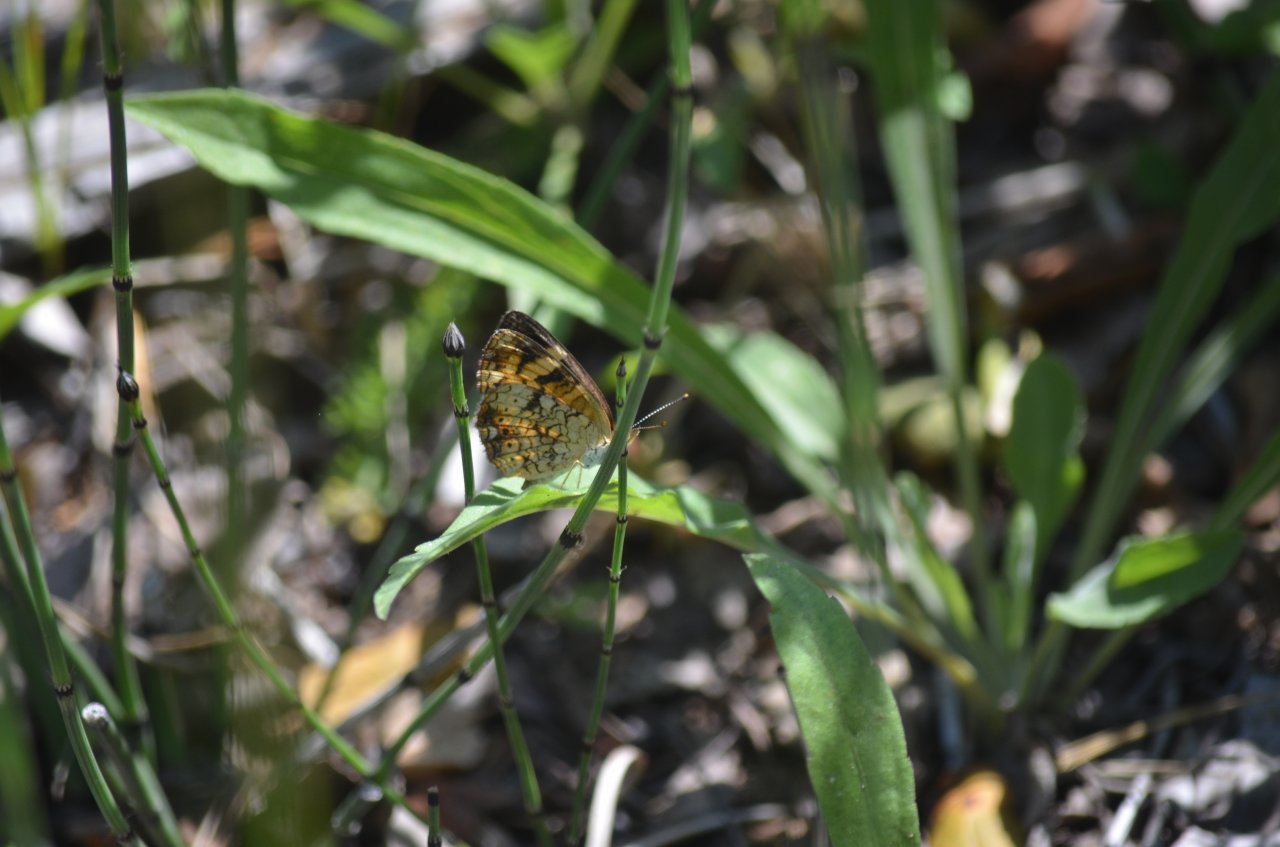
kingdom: Animalia
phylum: Arthropoda
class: Insecta
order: Lepidoptera
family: Nymphalidae
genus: Phyciodes
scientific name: Phyciodes tharos
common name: Northern Crescent
